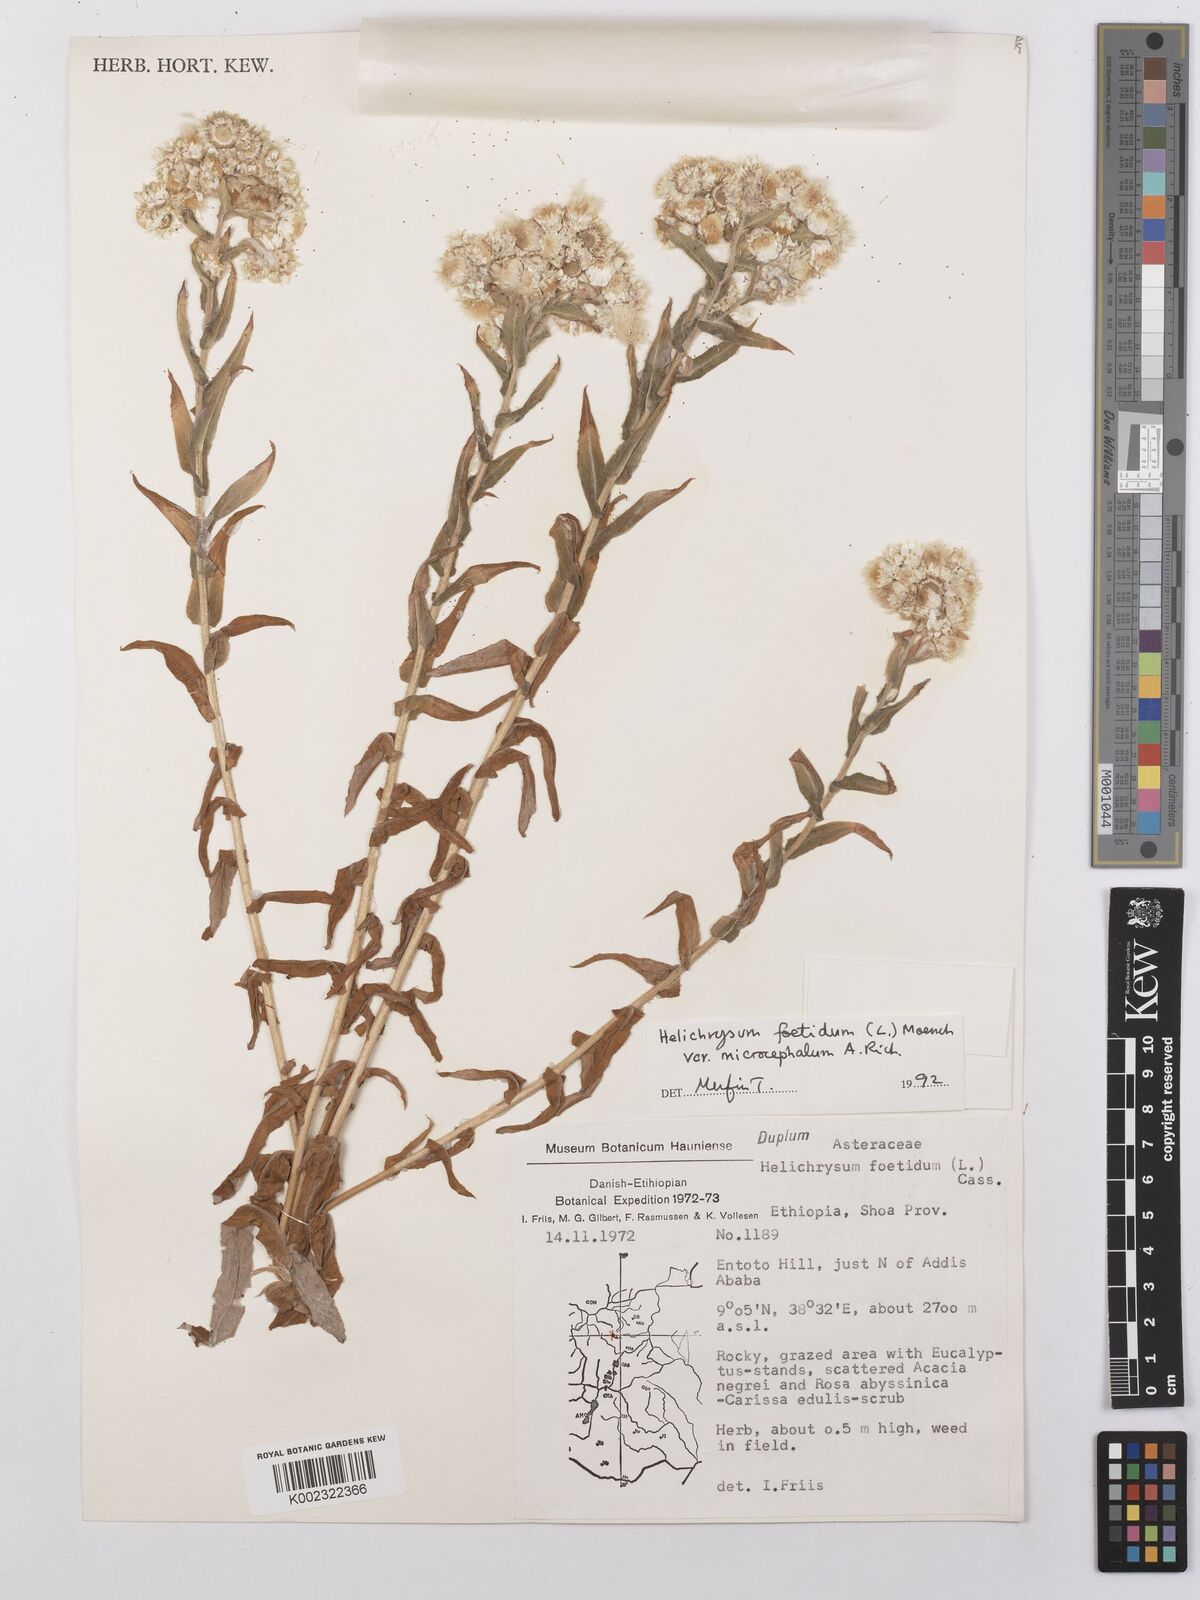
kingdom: Plantae
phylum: Tracheophyta
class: Magnoliopsida
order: Asterales
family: Asteraceae
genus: Helichrysum
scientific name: Helichrysum foetidum
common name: Stinking everlasting
